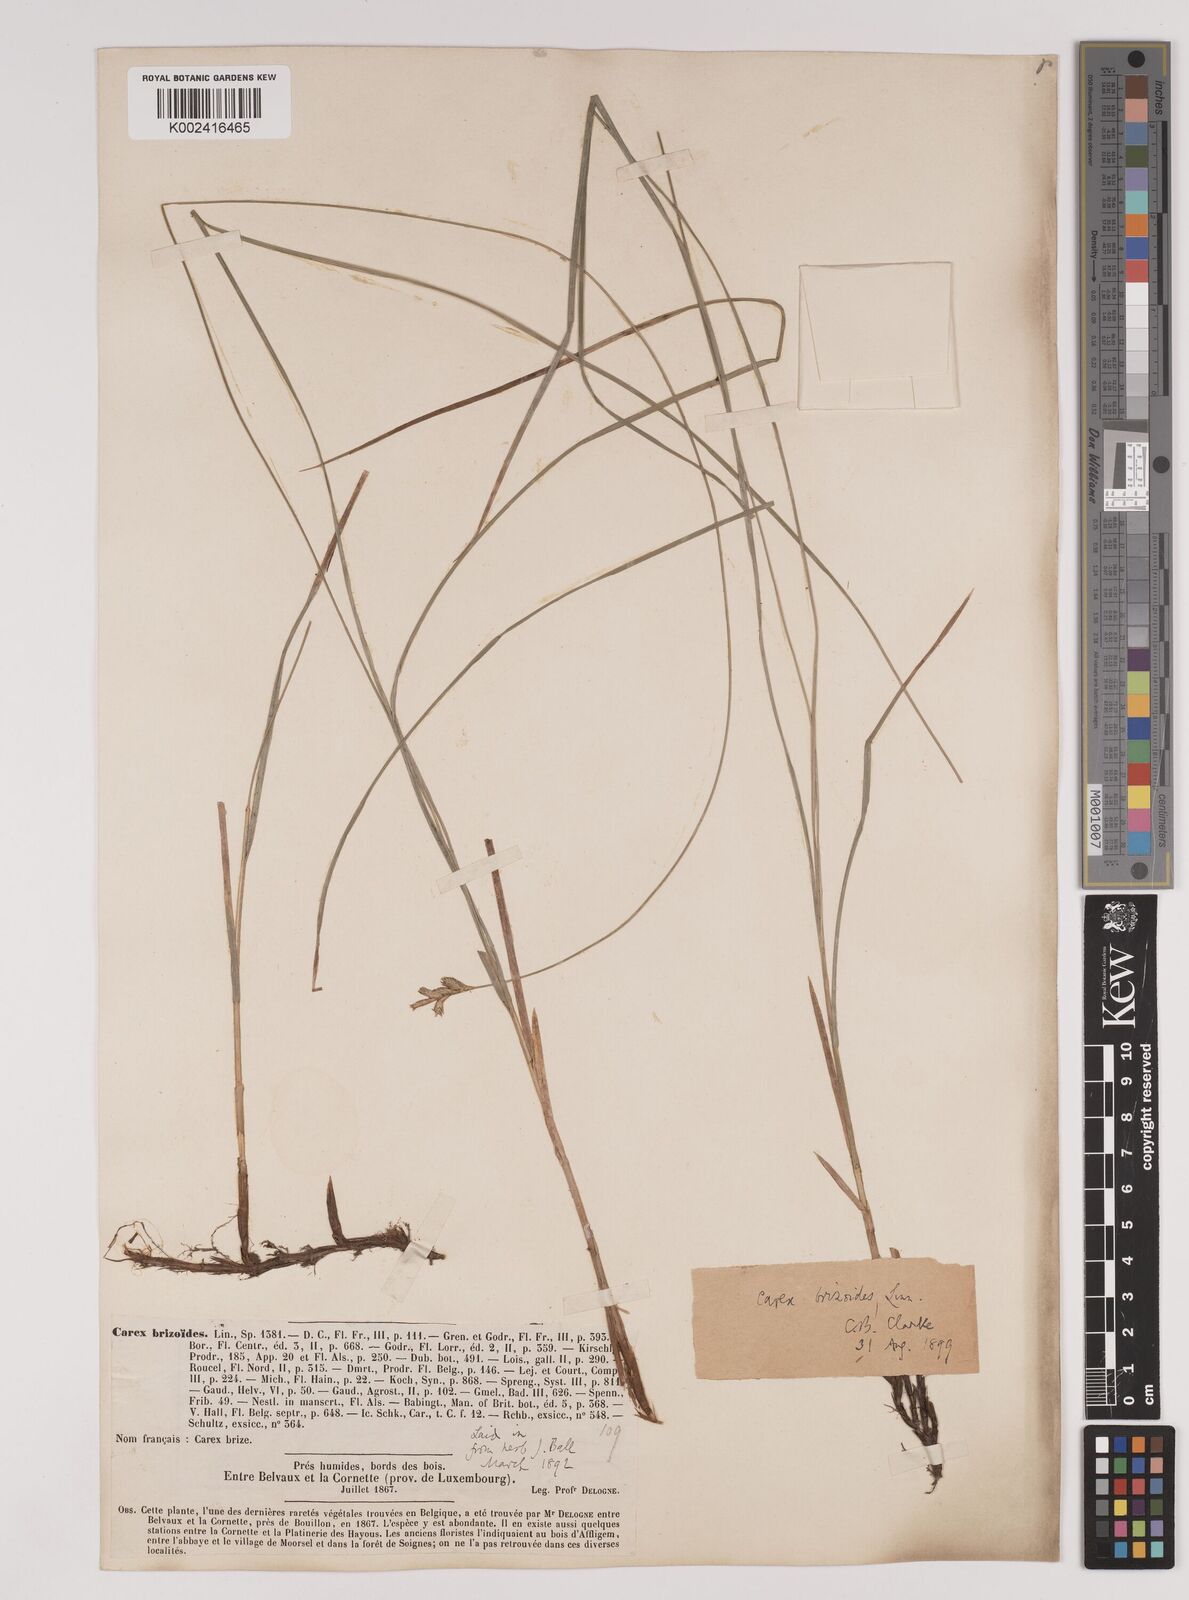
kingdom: Plantae
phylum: Tracheophyta
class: Liliopsida
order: Poales
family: Cyperaceae
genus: Carex
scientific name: Carex brizoides
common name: Quaking-grass sedge
